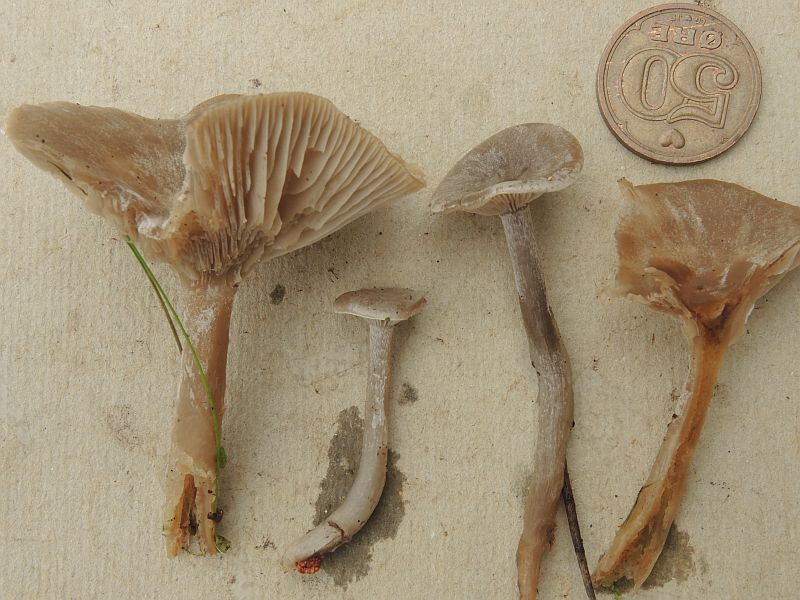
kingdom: Fungi
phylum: Basidiomycota
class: Agaricomycetes
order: Agaricales
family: Tricholomataceae
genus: Clitocybe
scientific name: Clitocybe vibecina
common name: randstribet tragthat
